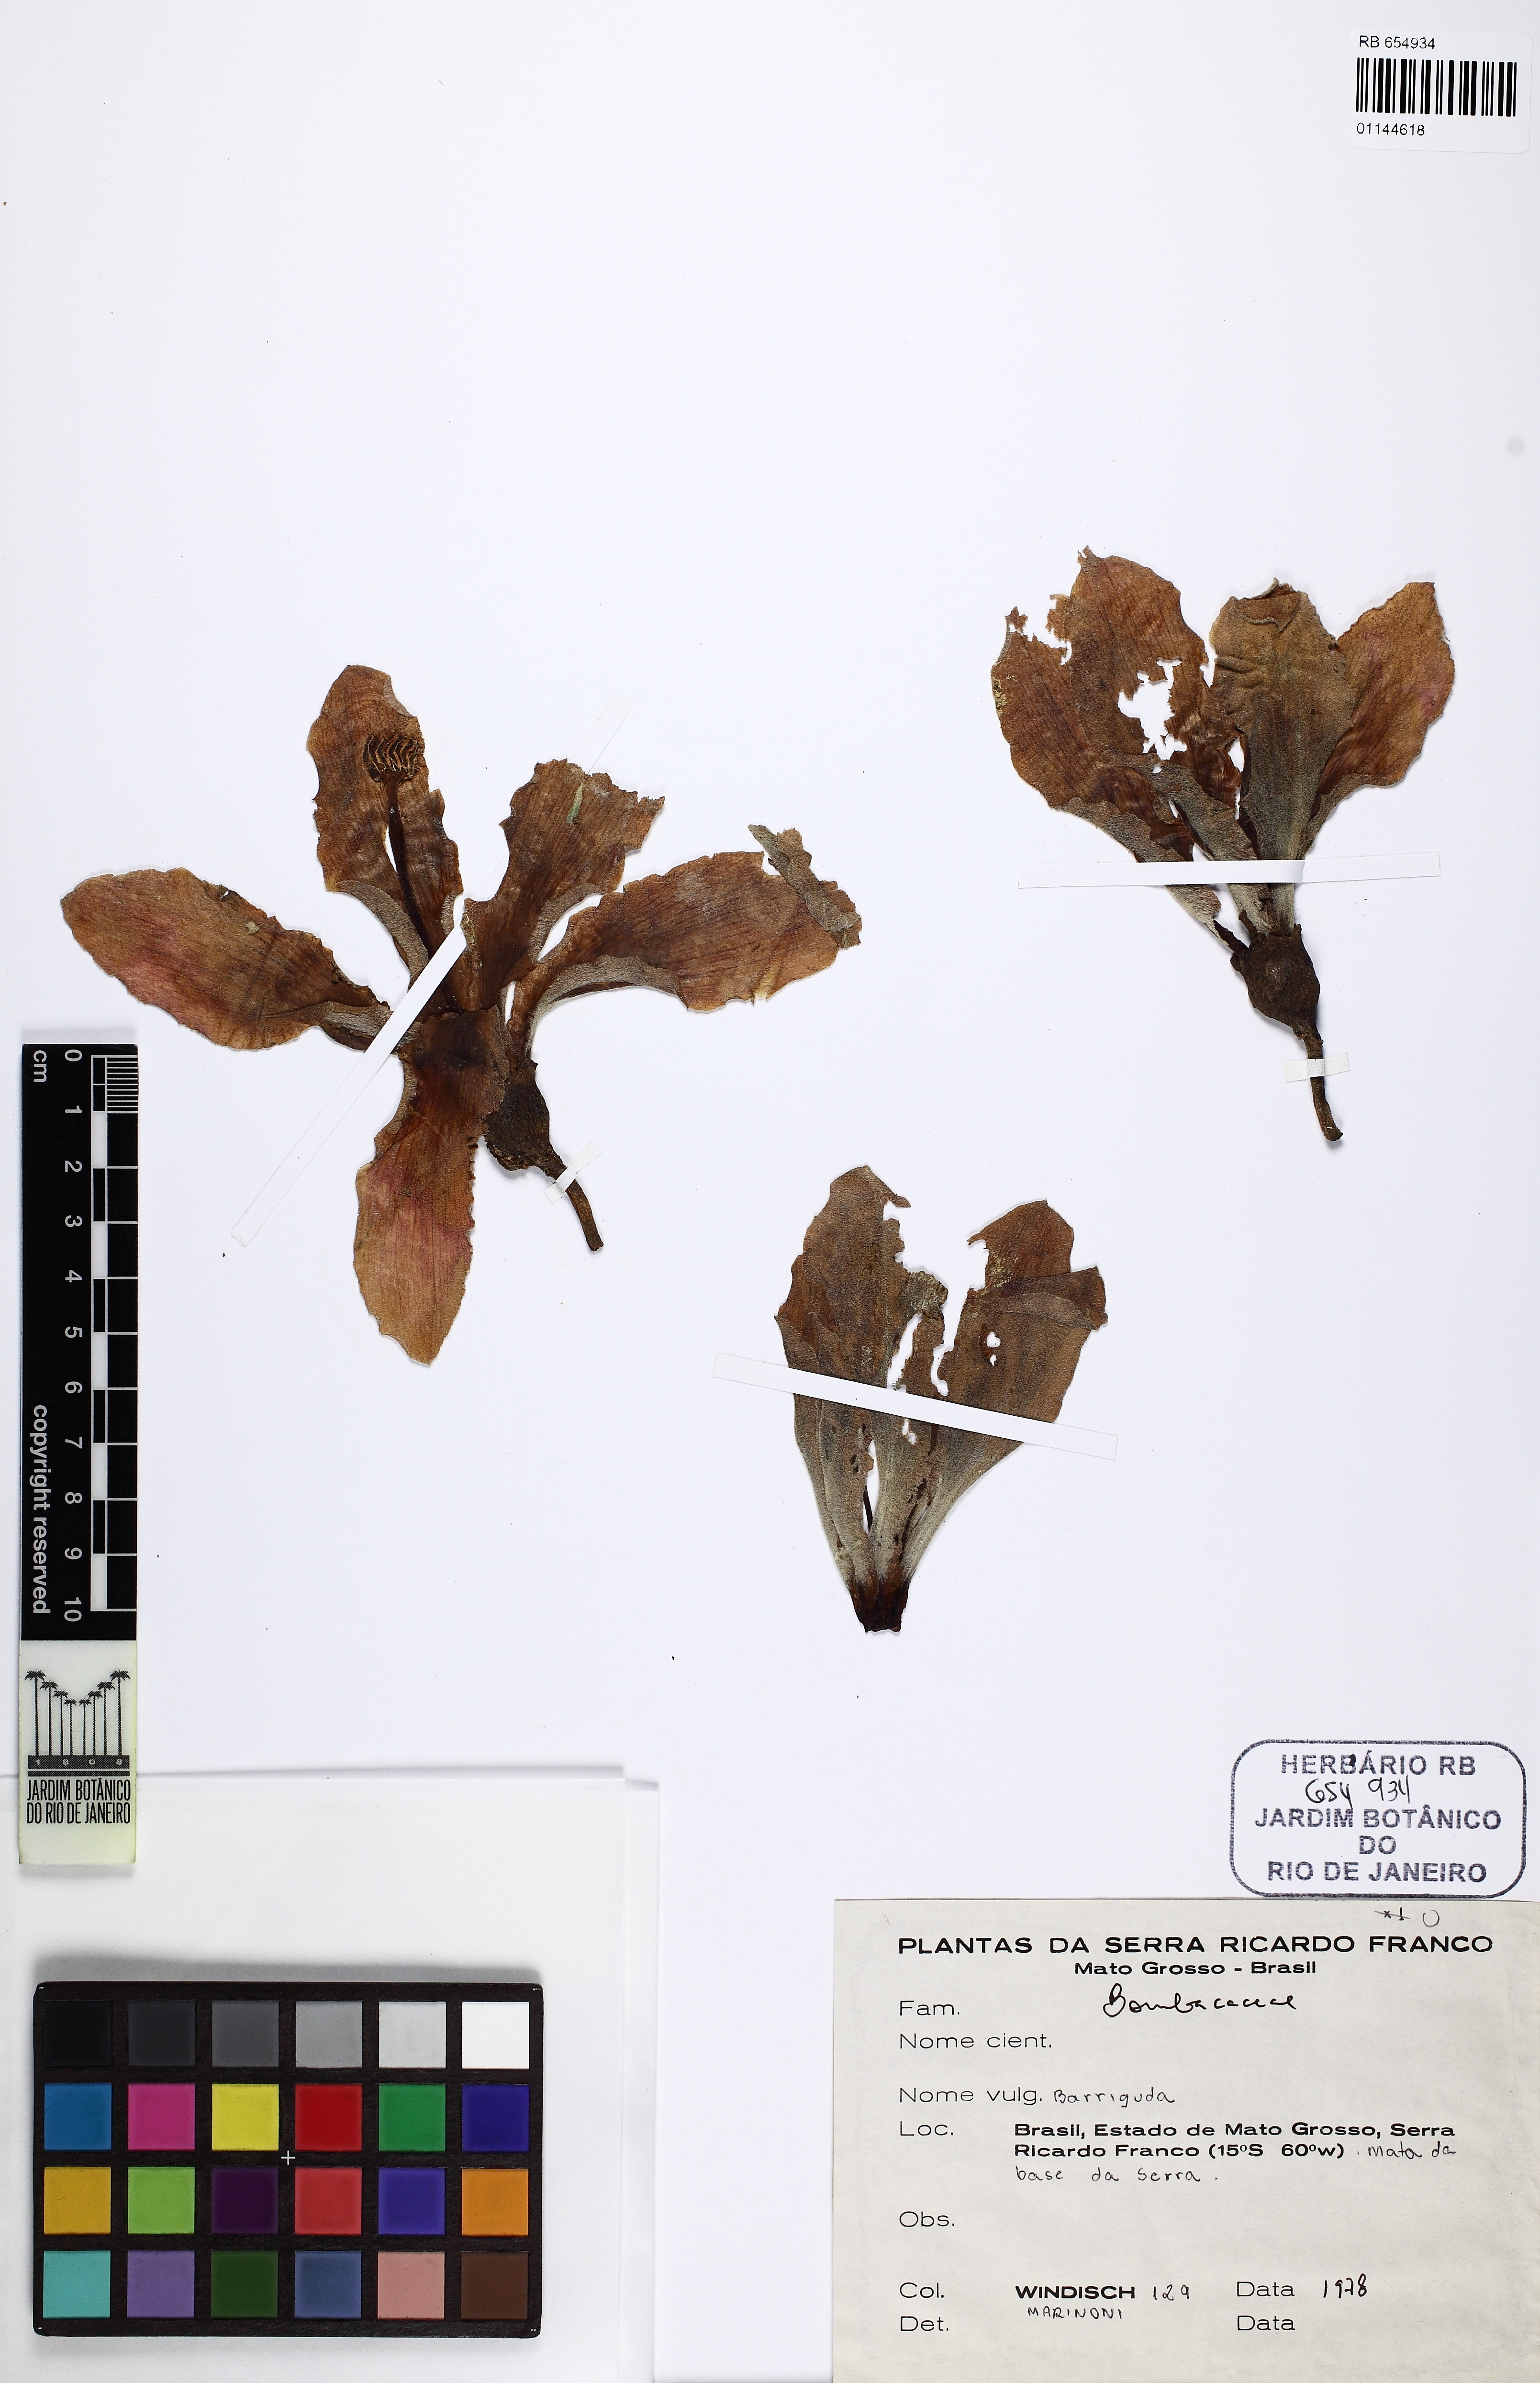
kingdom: Plantae
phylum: Tracheophyta
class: Magnoliopsida
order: Malvales
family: Malvaceae
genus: Ceiba
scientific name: Ceiba speciosa
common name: Silk-floss tree
